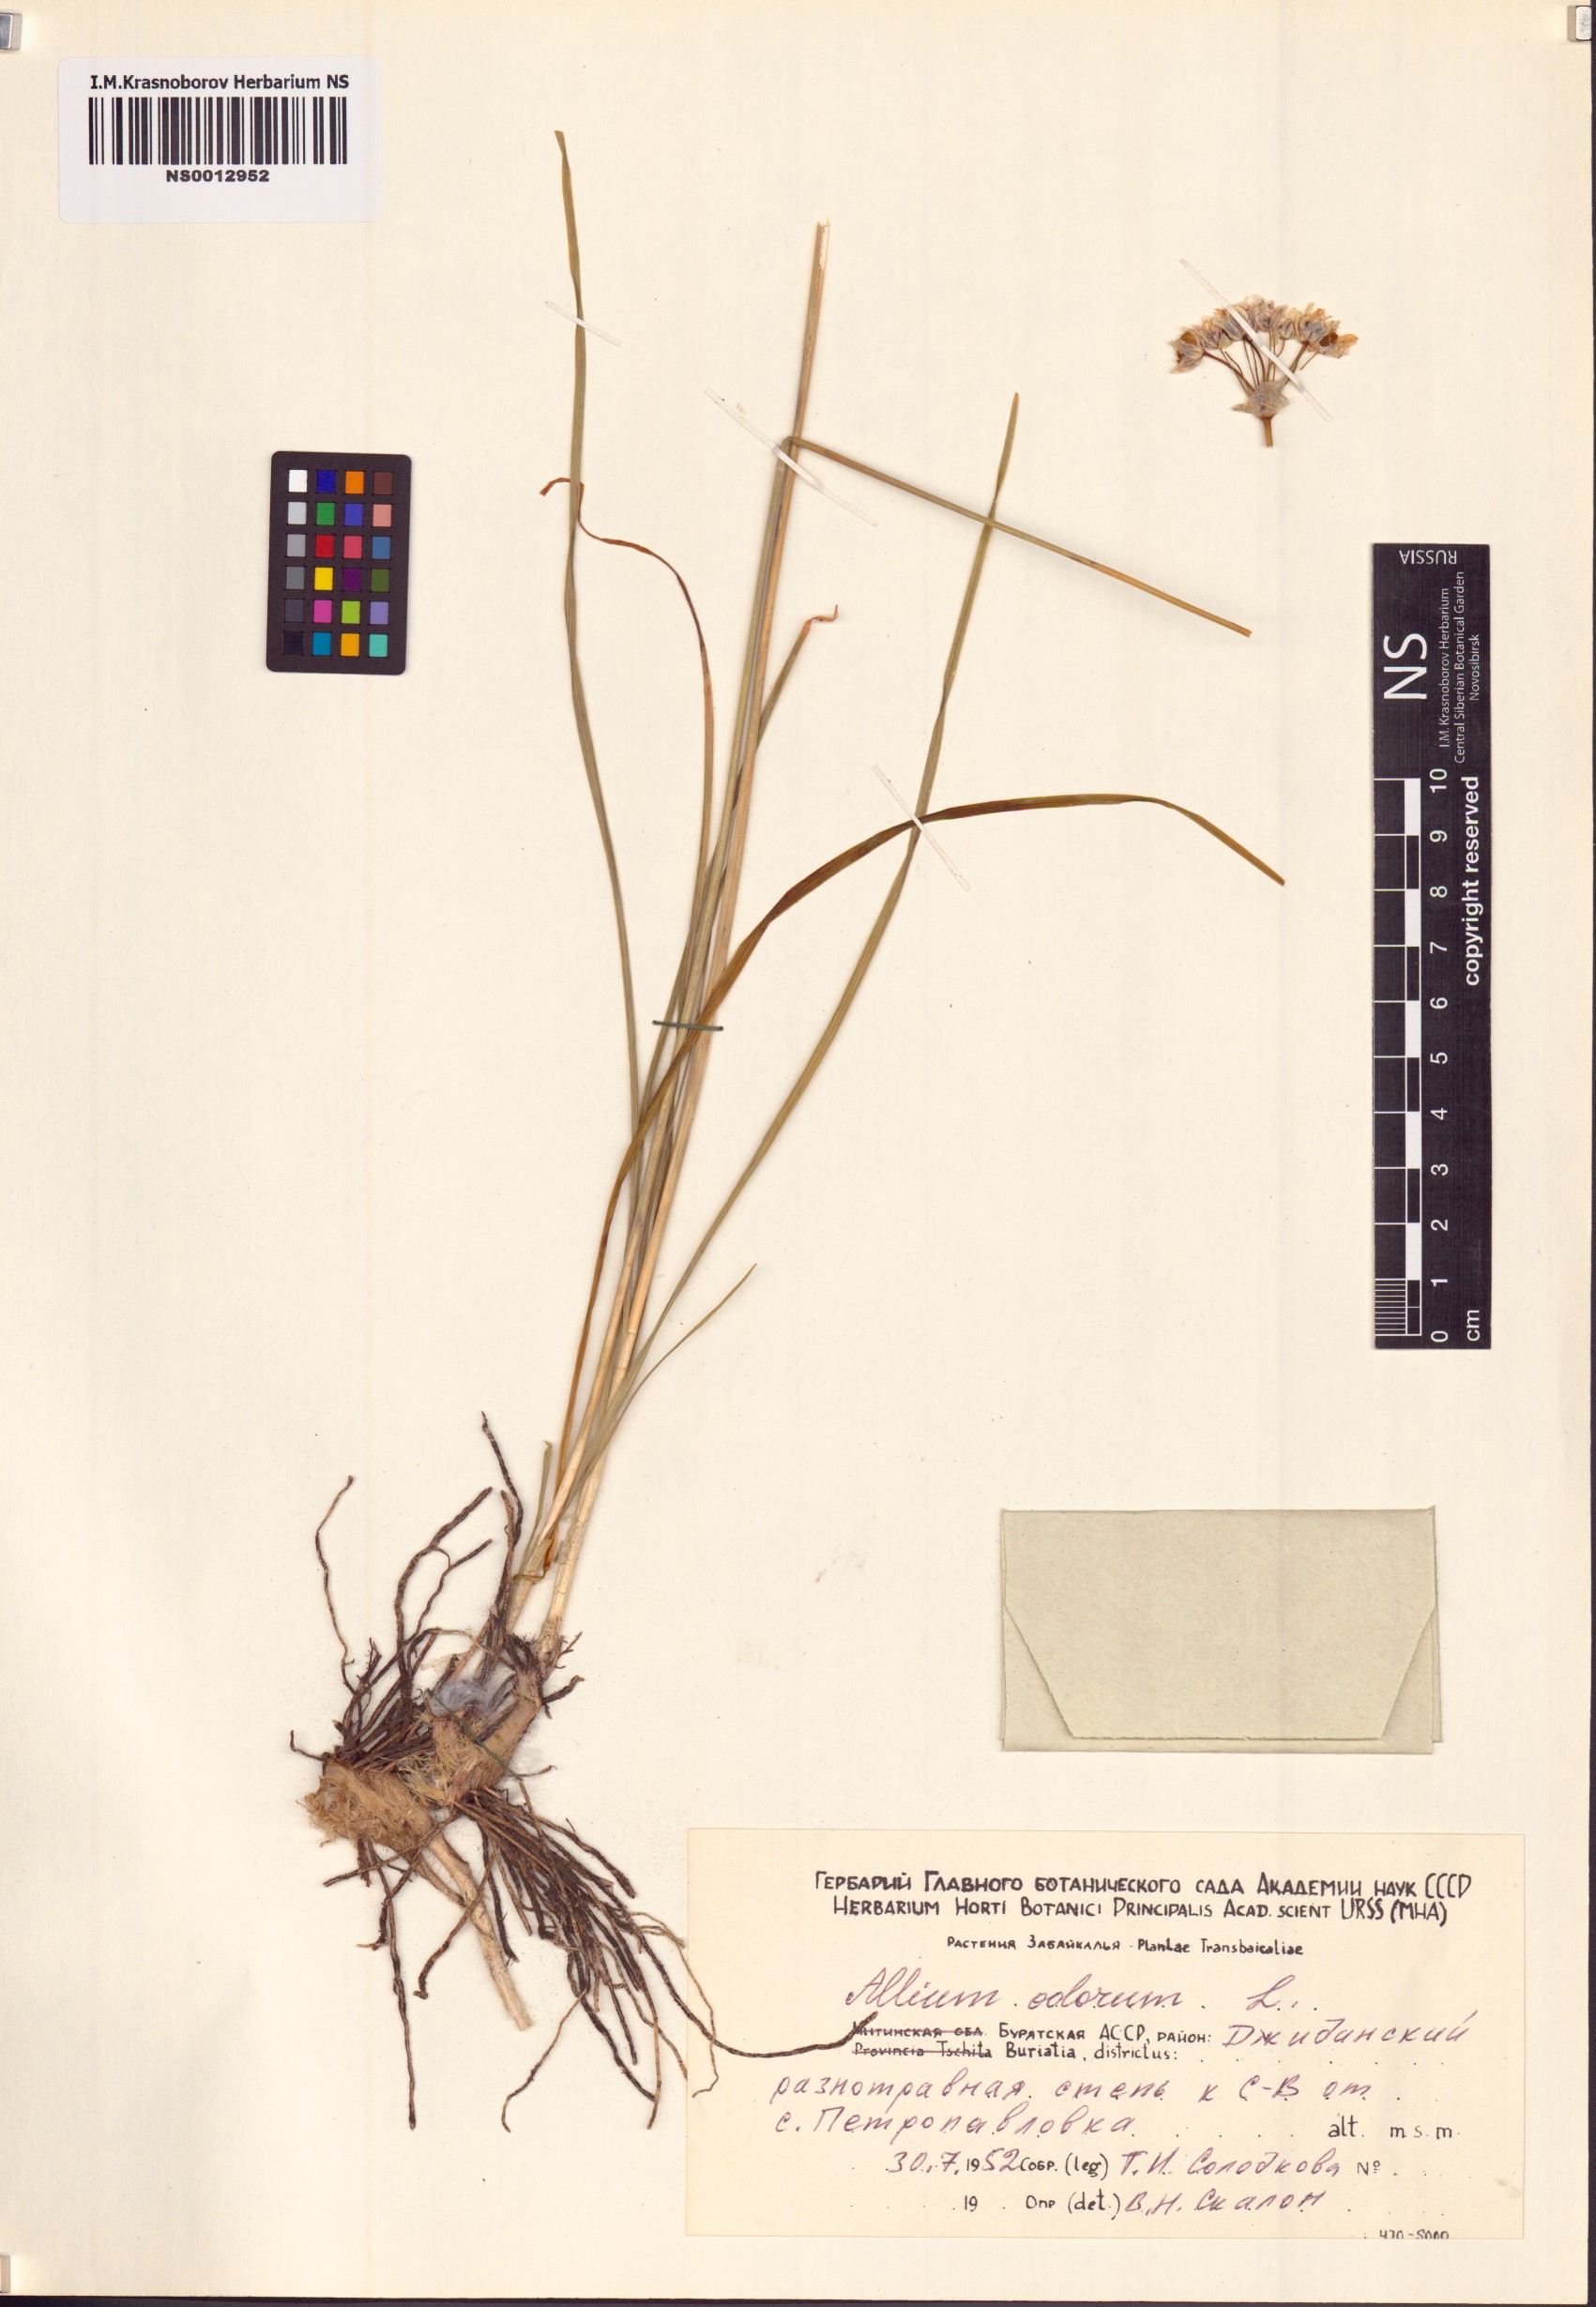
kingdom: Plantae
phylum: Tracheophyta
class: Liliopsida
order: Asparagales
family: Amaryllidaceae
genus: Allium
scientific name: Allium ramosum
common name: Fragrant garlic
